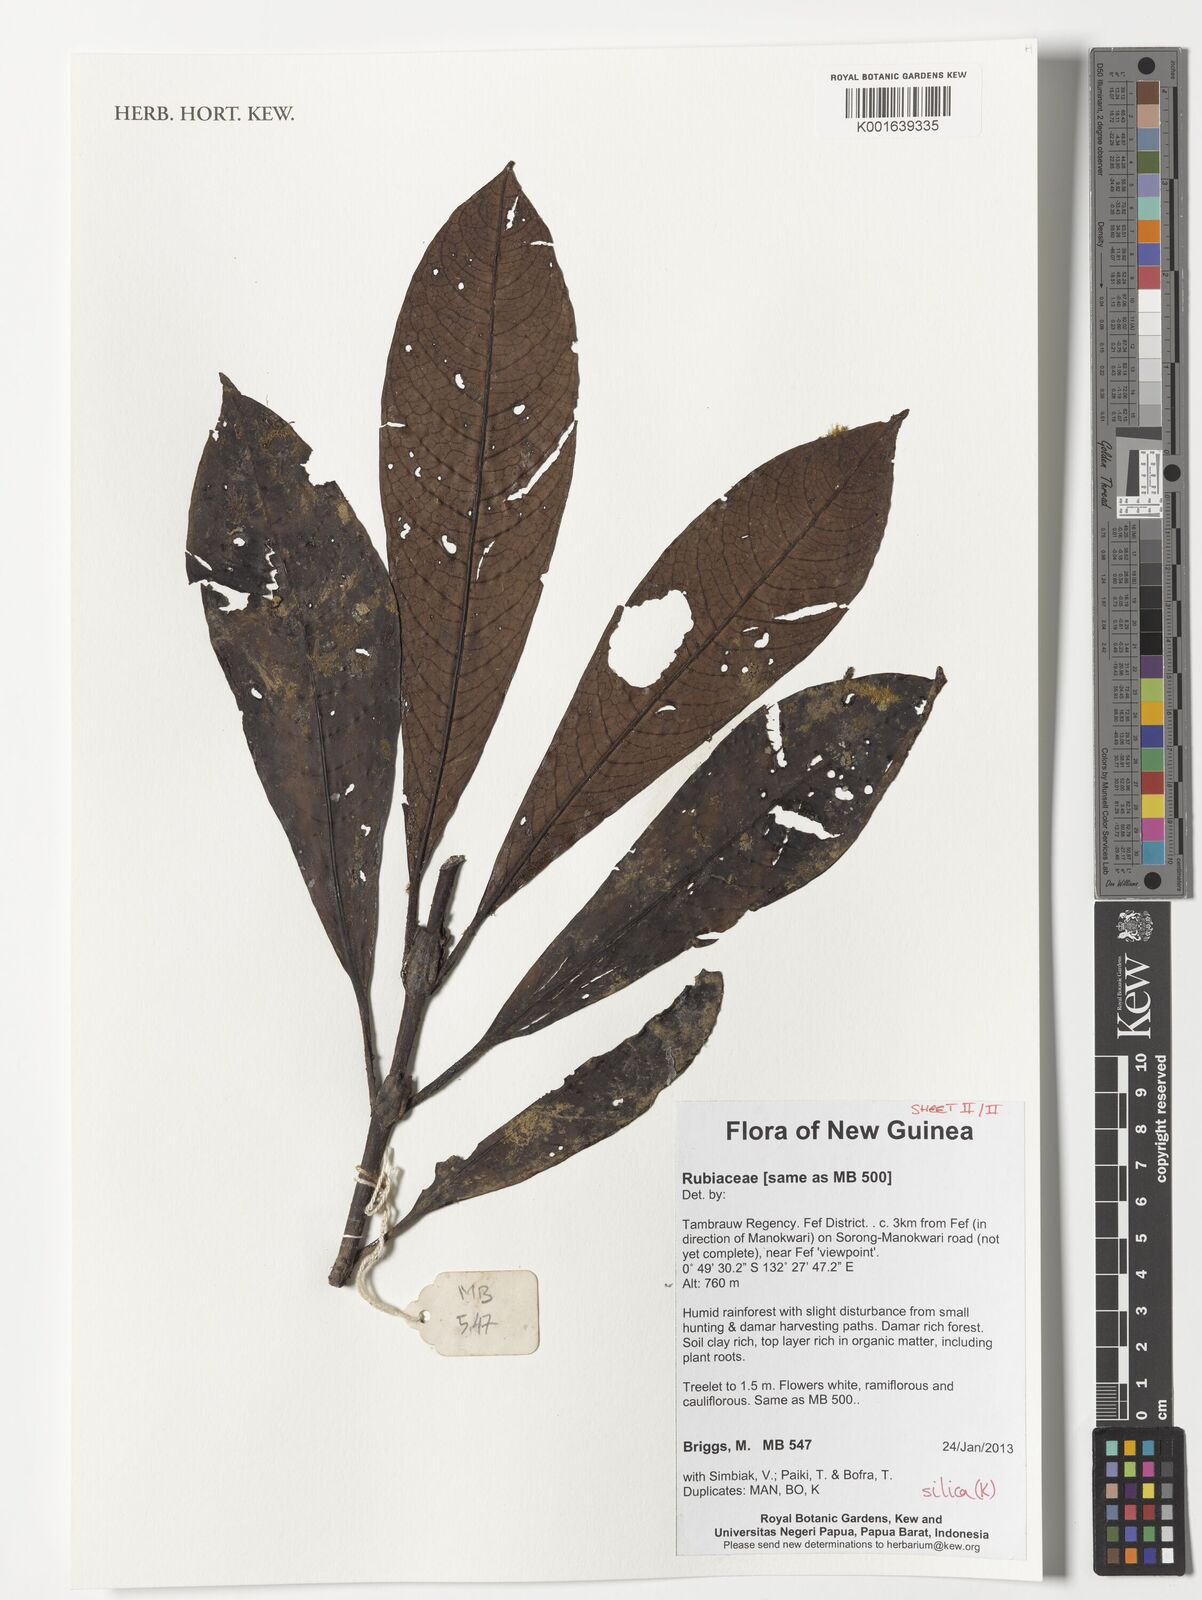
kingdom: Plantae
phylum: Tracheophyta
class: Magnoliopsida
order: Gentianales
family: Rubiaceae
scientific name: Rubiaceae
